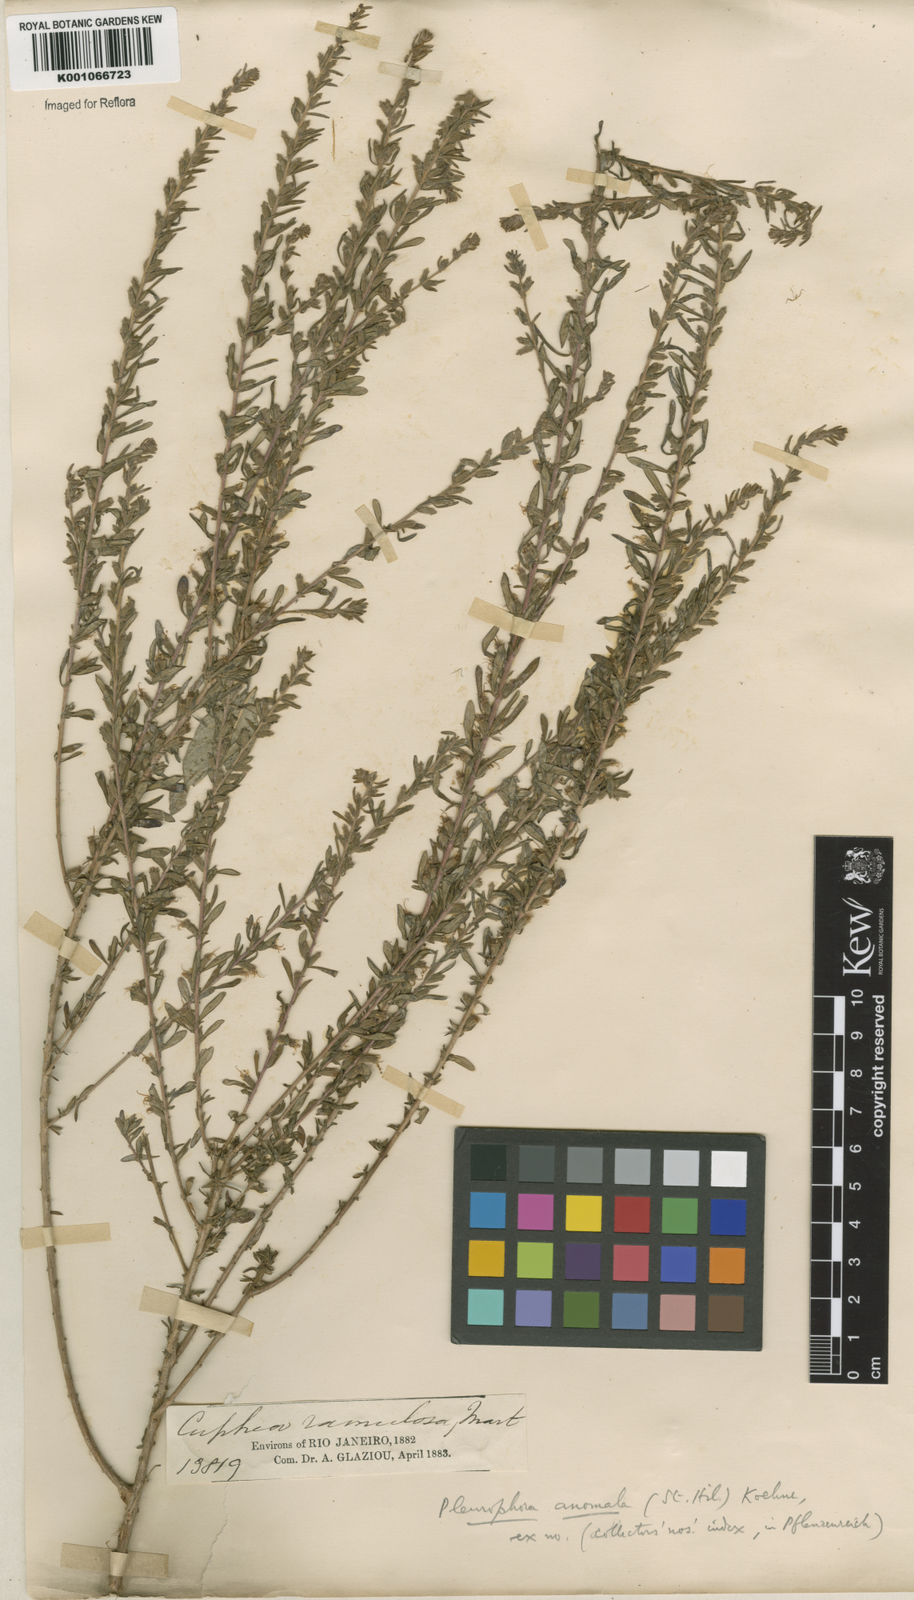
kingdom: Plantae
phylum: Tracheophyta
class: Magnoliopsida
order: Myrtales
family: Lythraceae
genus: Pleurophora
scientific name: Pleurophora anomala
